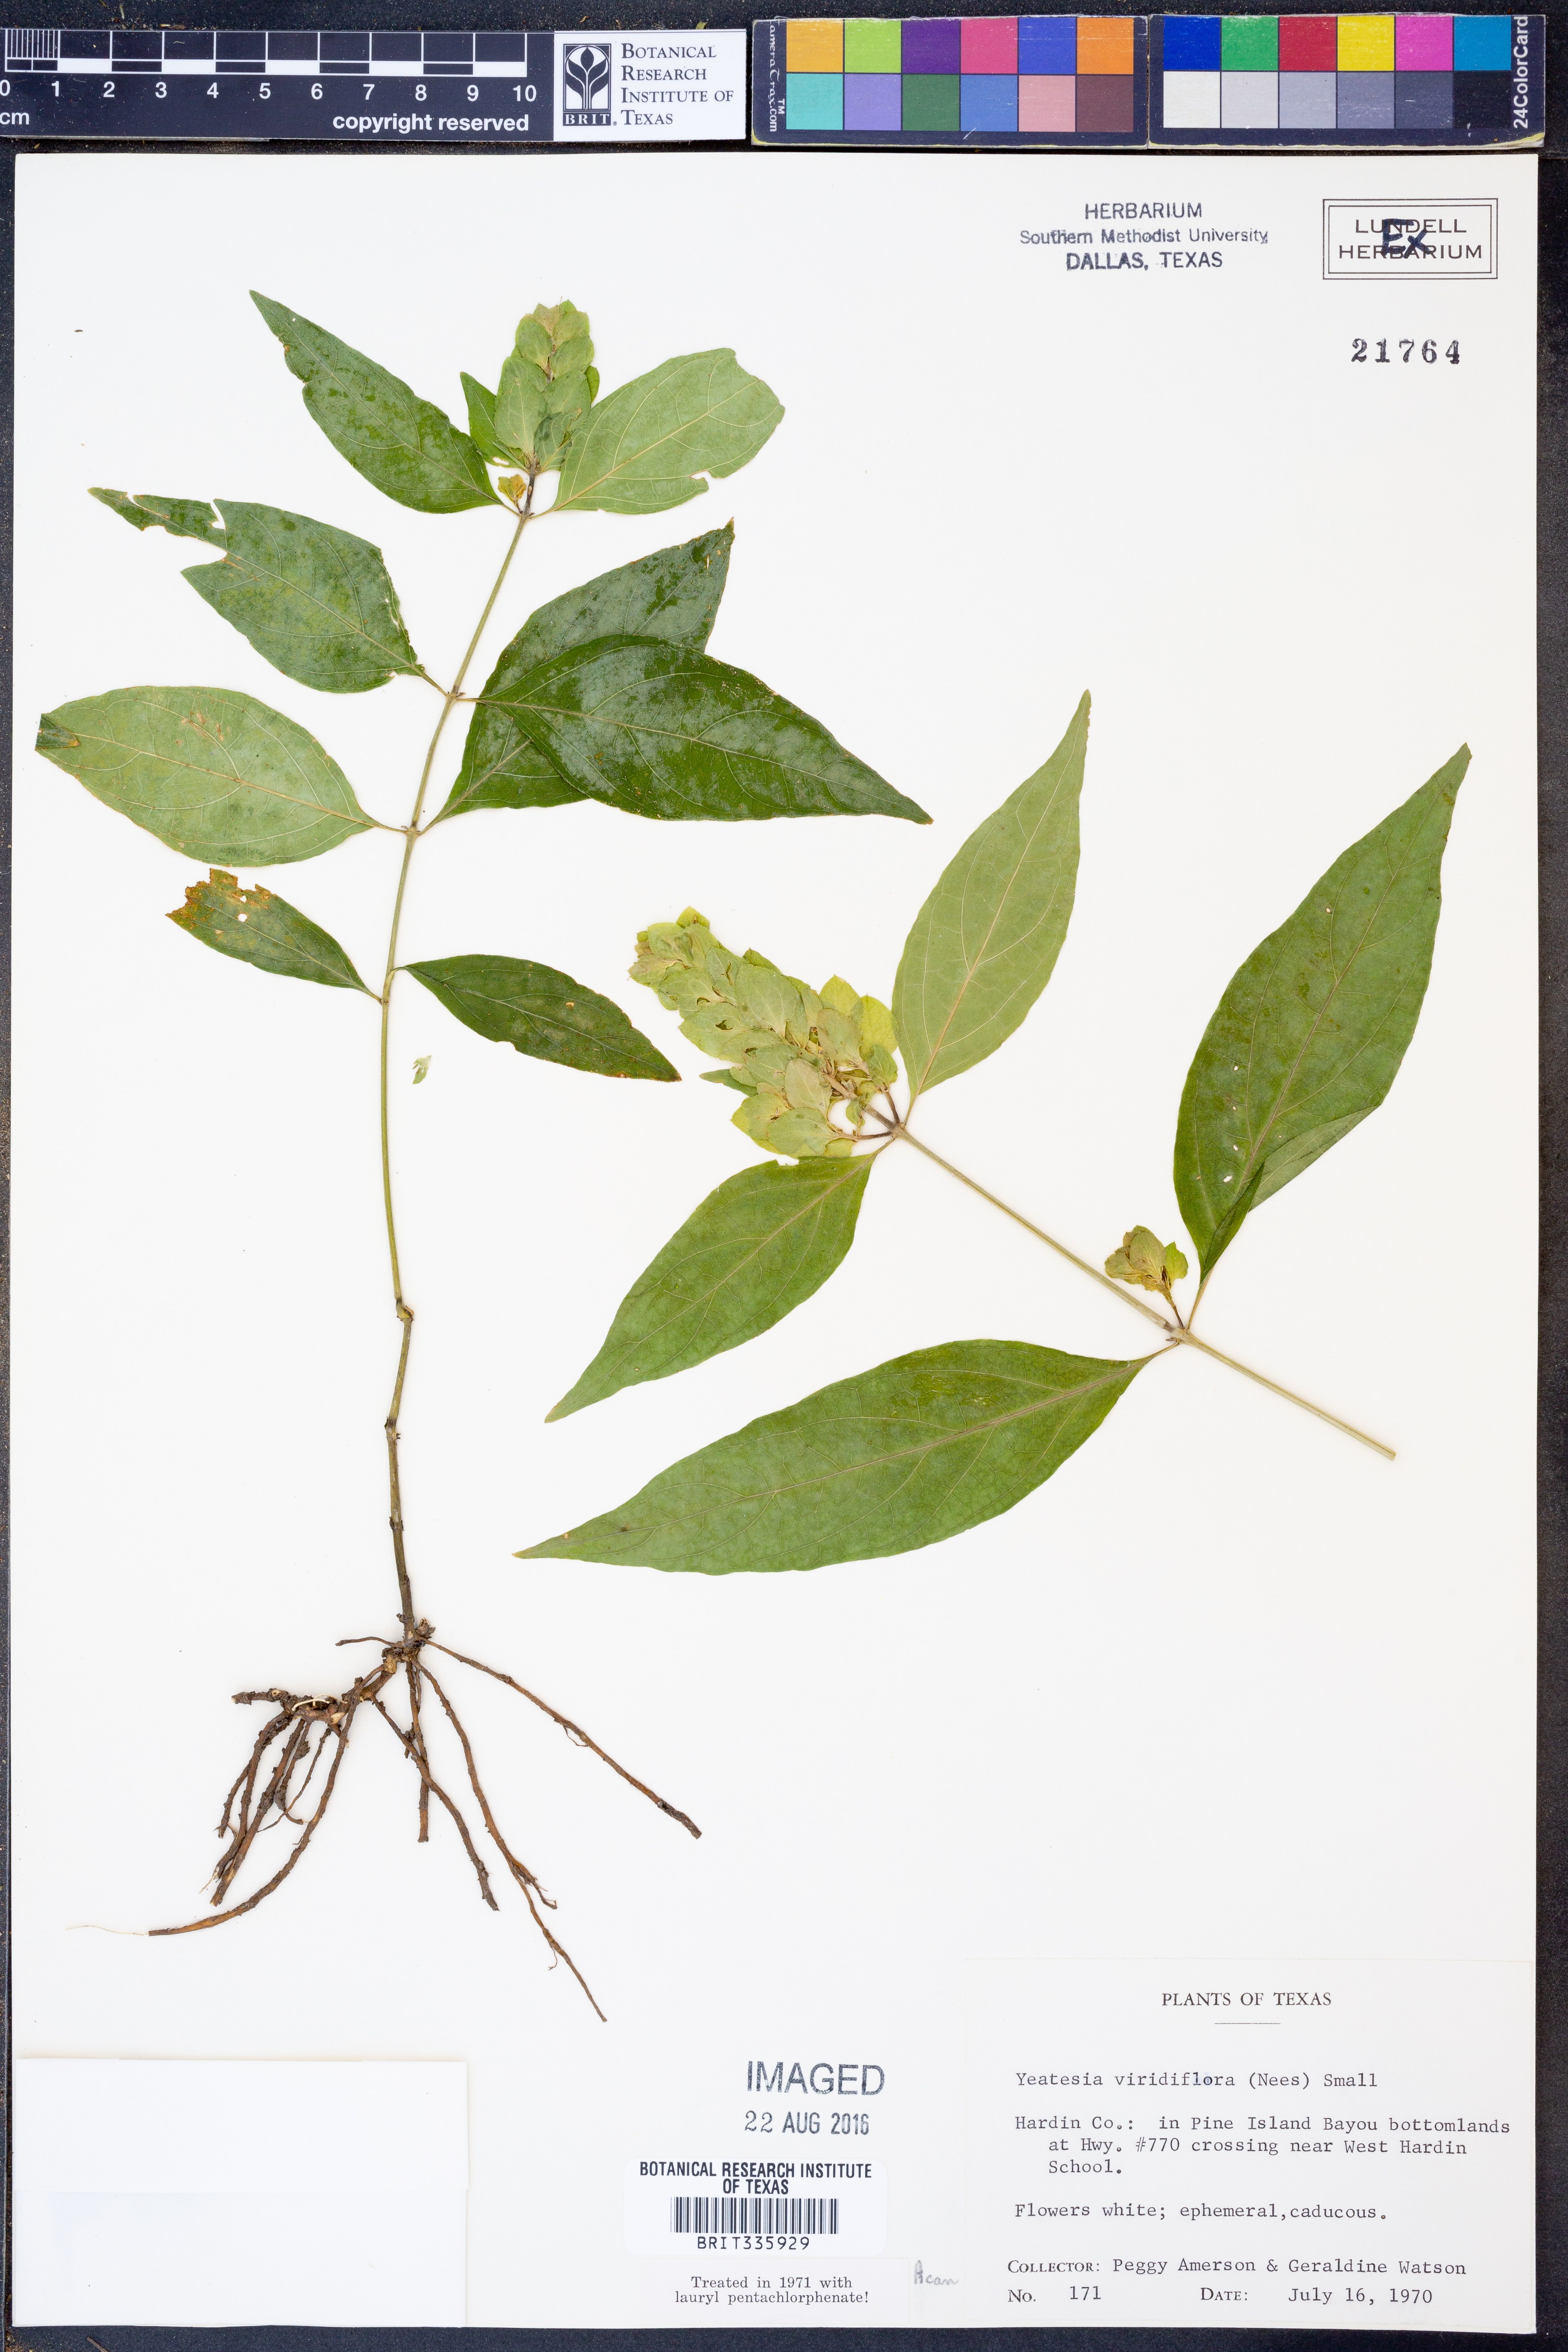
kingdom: Plantae
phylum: Tracheophyta
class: Magnoliopsida
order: Lamiales
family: Acanthaceae
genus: Yeatesia
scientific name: Yeatesia viridiflora
